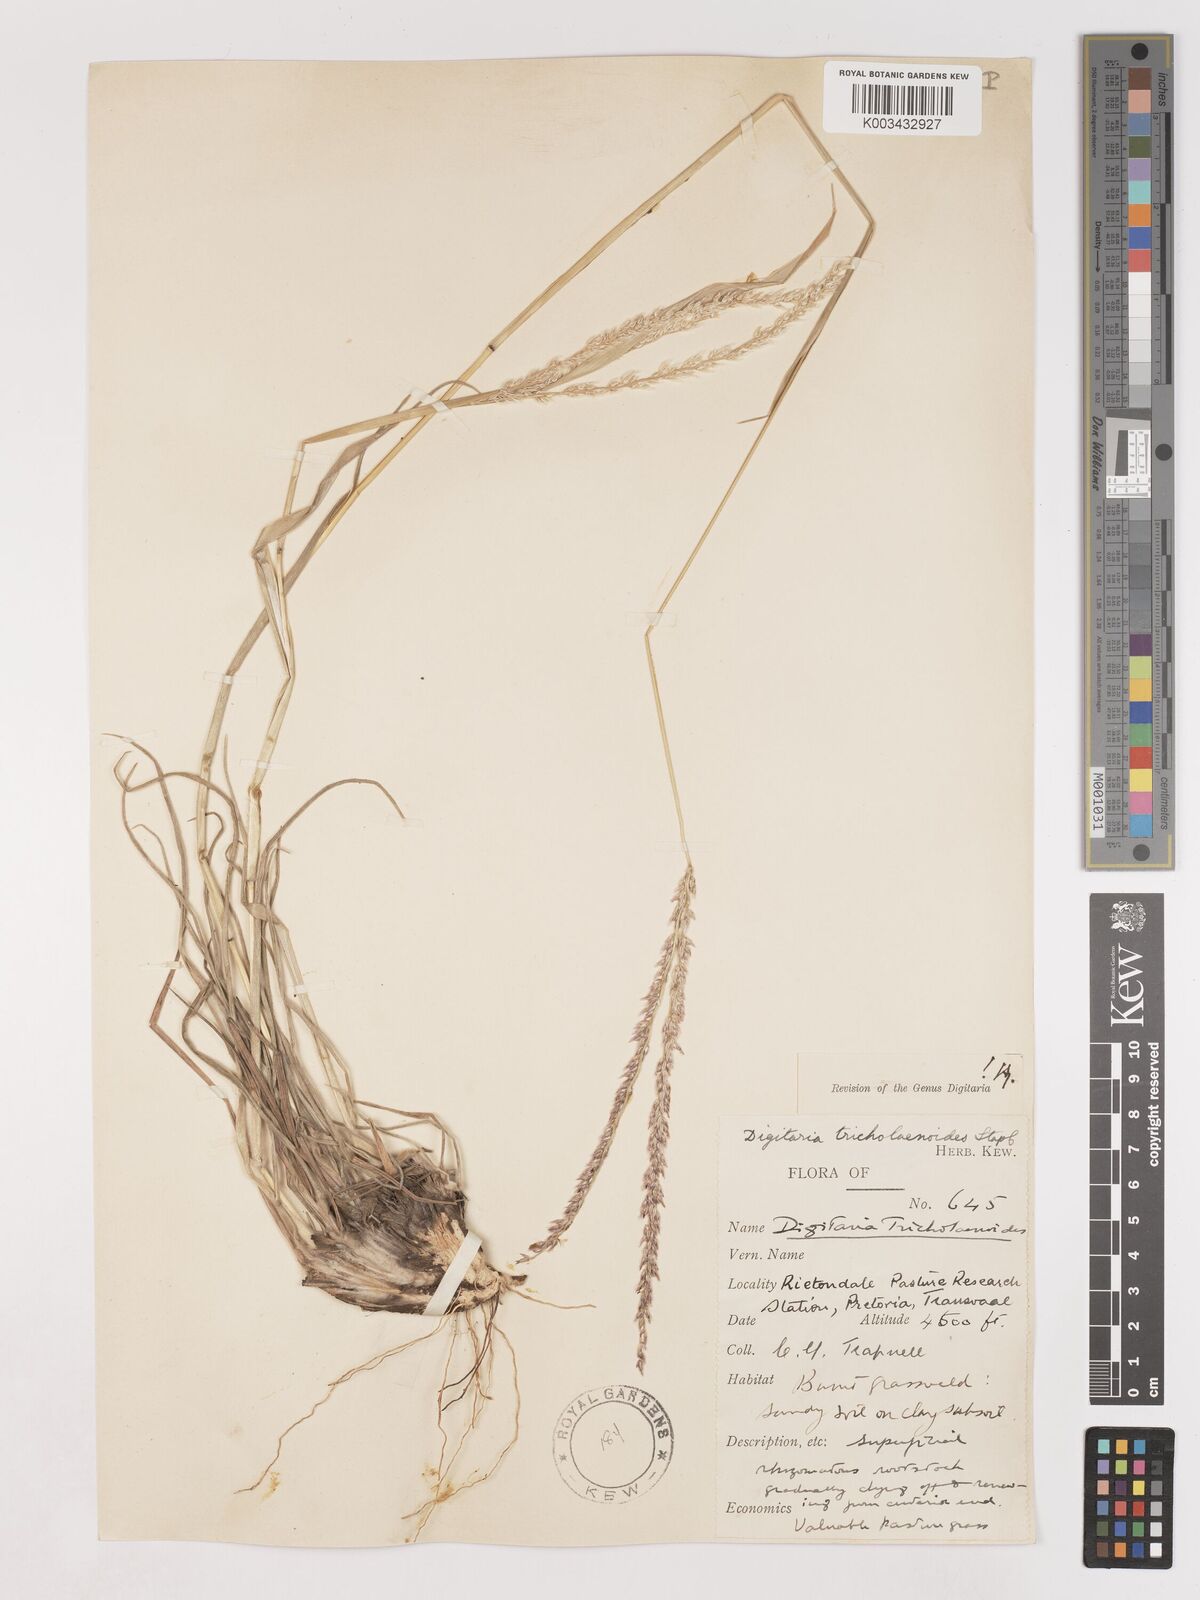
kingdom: Plantae
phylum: Tracheophyta
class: Liliopsida
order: Poales
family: Poaceae
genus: Digitaria
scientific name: Digitaria brazzae
